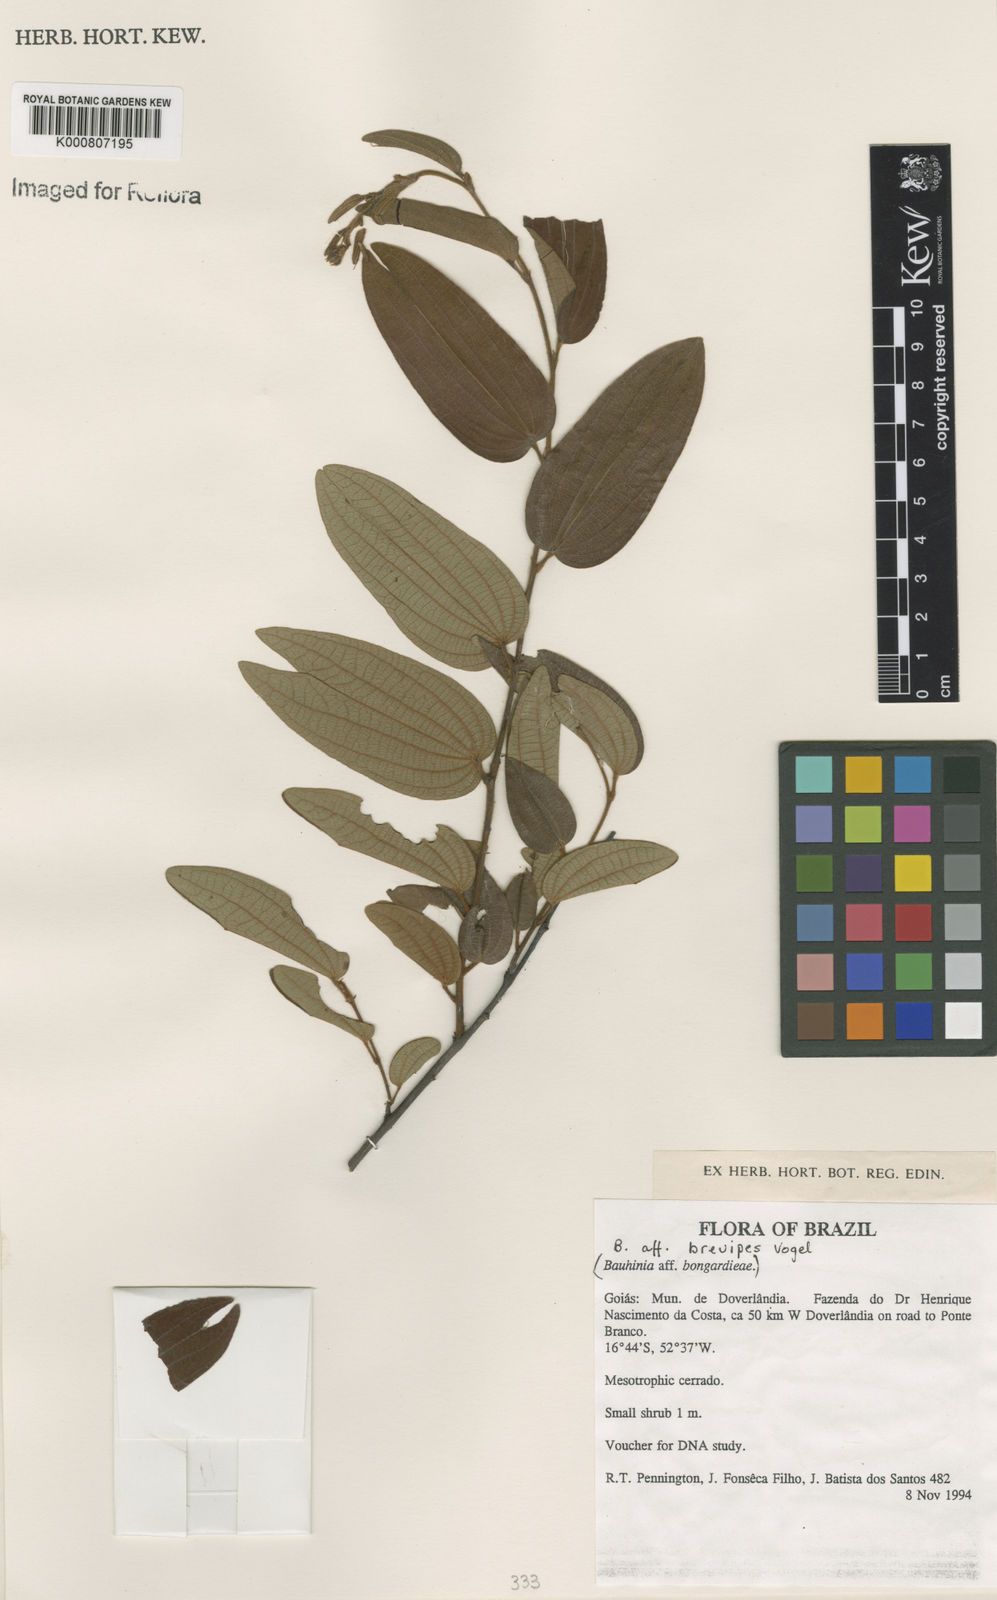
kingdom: Plantae
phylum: Tracheophyta
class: Magnoliopsida
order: Fabales
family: Fabaceae
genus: Bauhinia
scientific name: Bauhinia brevipes
